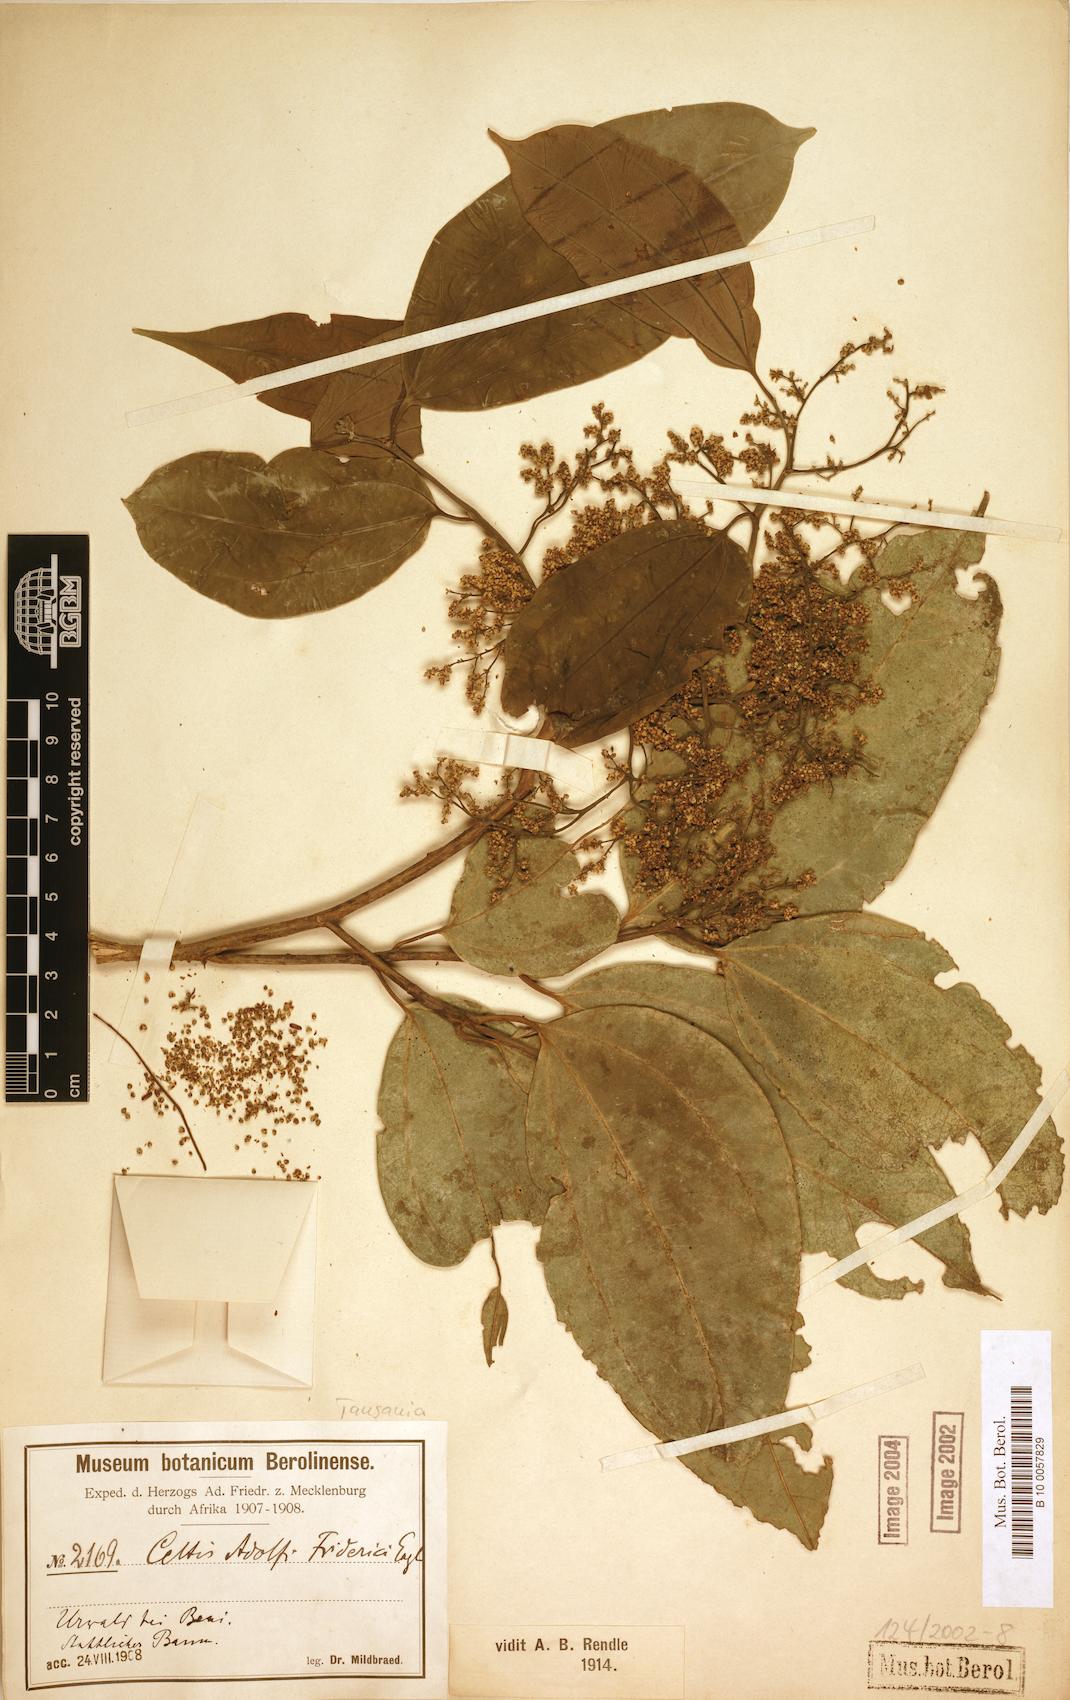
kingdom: Plantae
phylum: Tracheophyta
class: Magnoliopsida
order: Rosales
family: Cannabaceae
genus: Celtis
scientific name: Celtis adolfi-friderici
